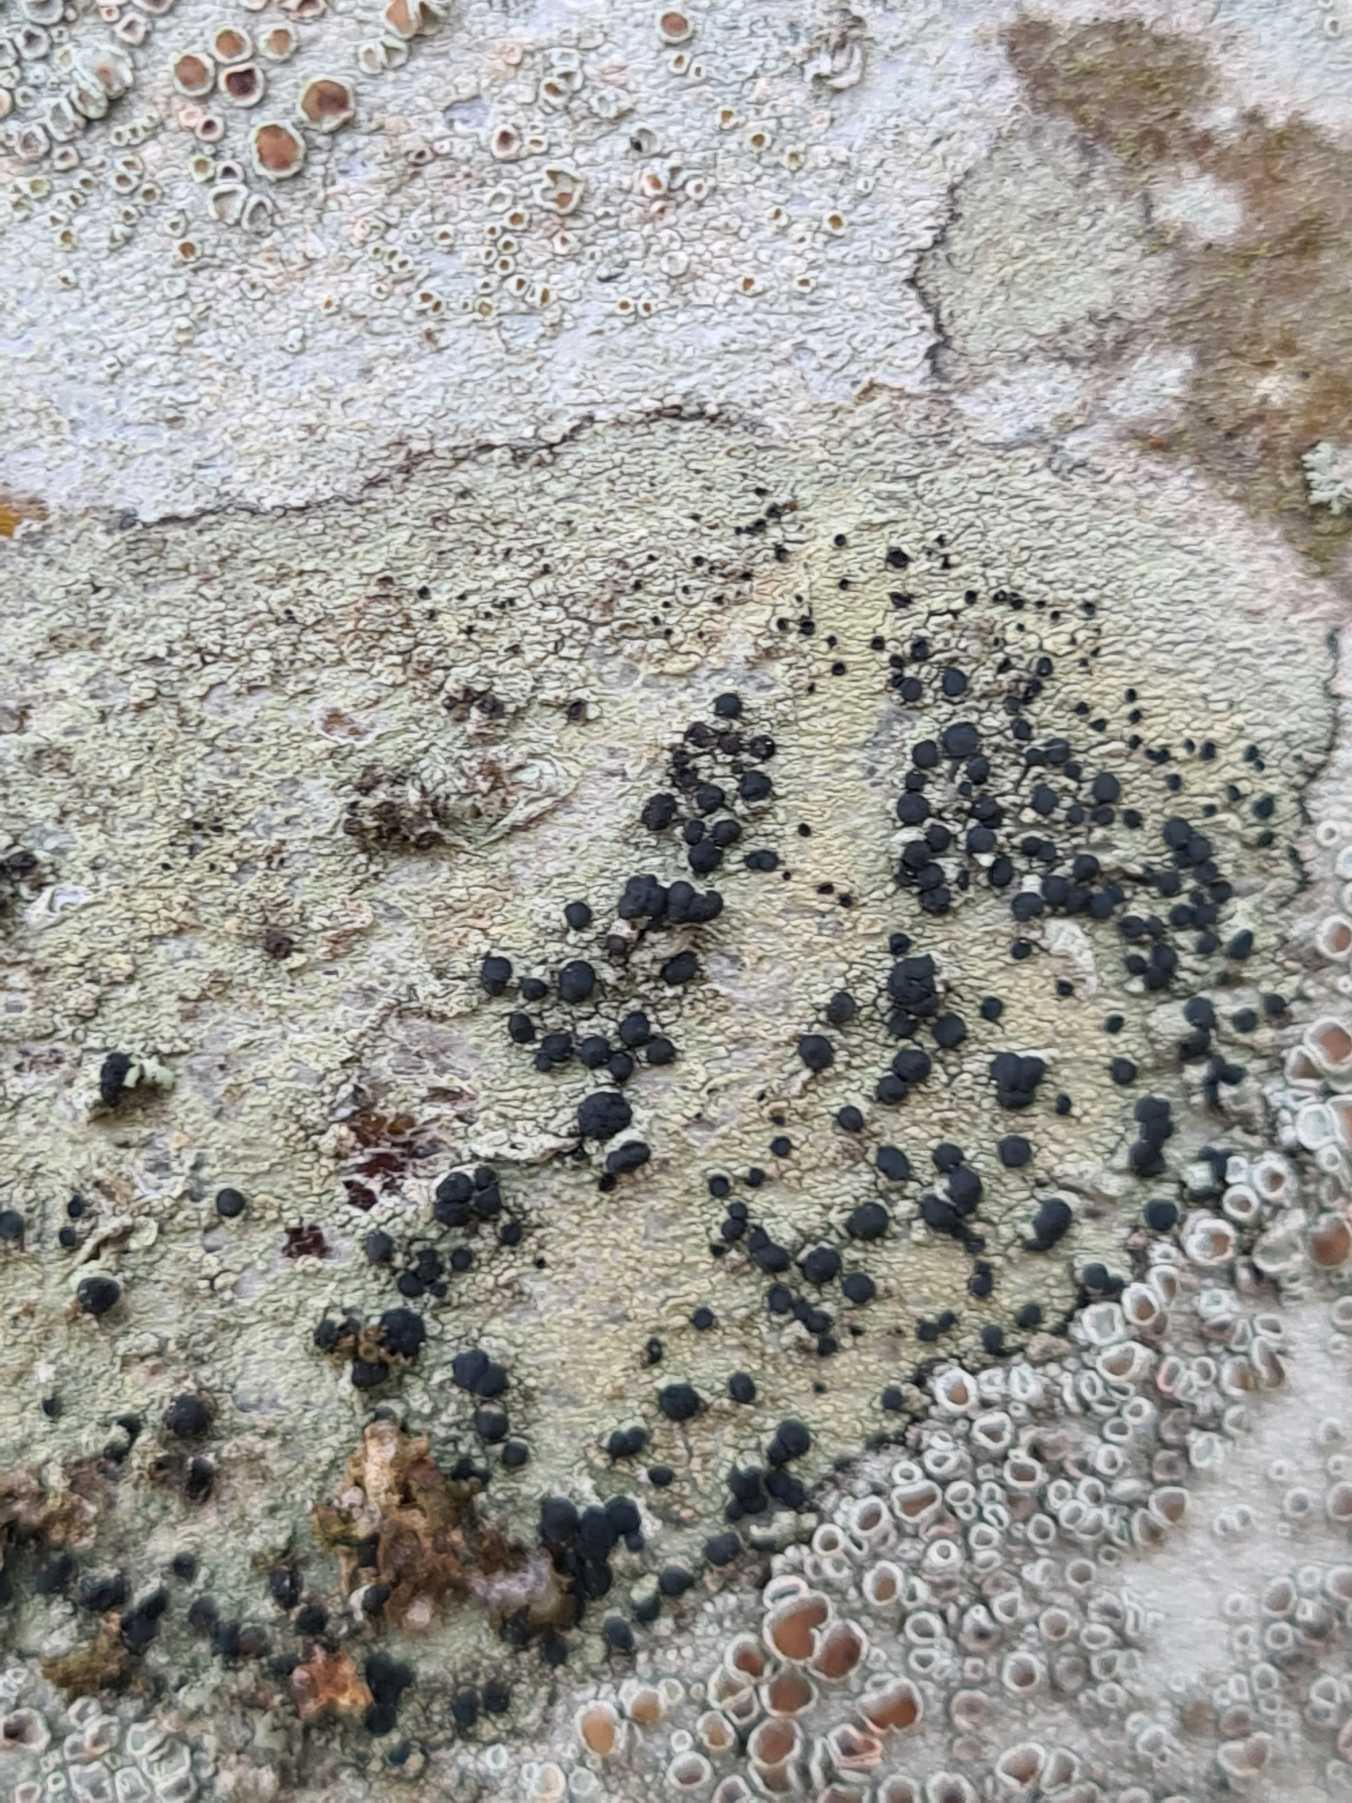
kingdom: Fungi
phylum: Ascomycota
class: Lecanoromycetes
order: Lecanorales
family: Lecanoraceae
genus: Lecidella
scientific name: Lecidella elaeochroma
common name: Grågrøn skivelav
